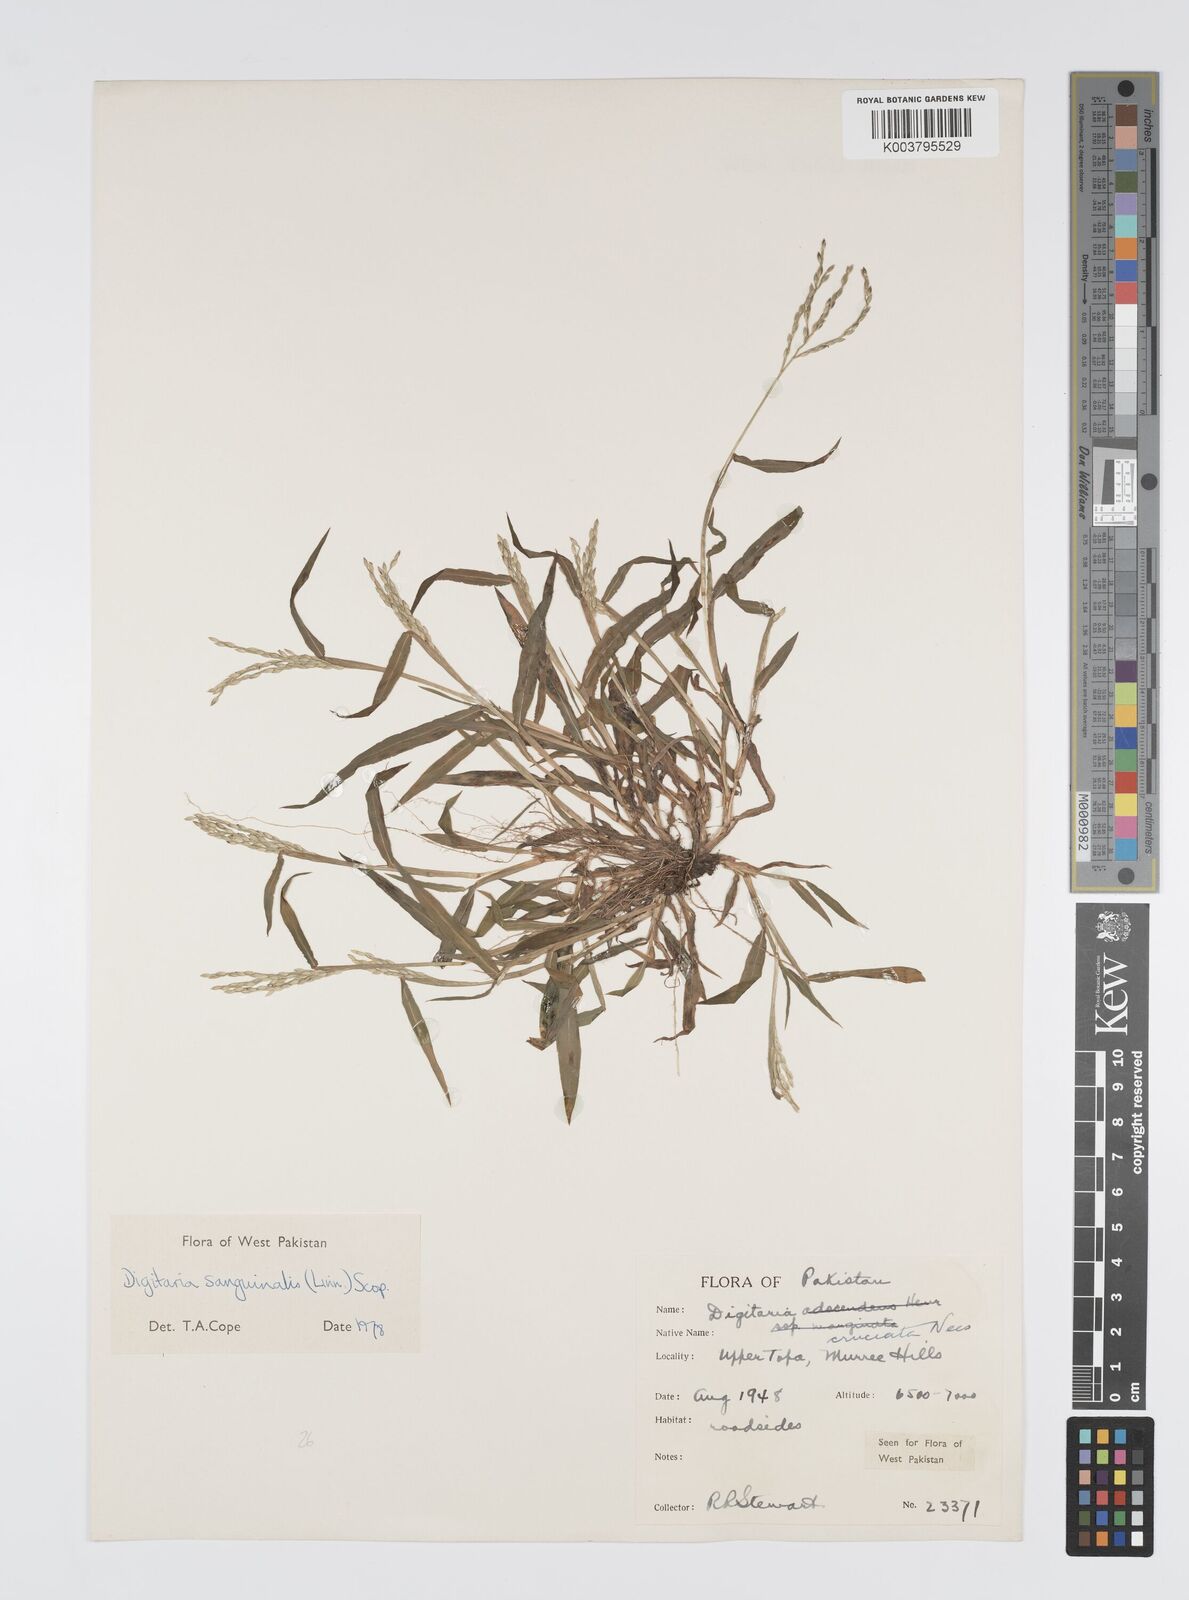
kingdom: Plantae
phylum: Tracheophyta
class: Liliopsida
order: Poales
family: Poaceae
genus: Digitaria
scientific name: Digitaria sanguinalis
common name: Hairy crabgrass
